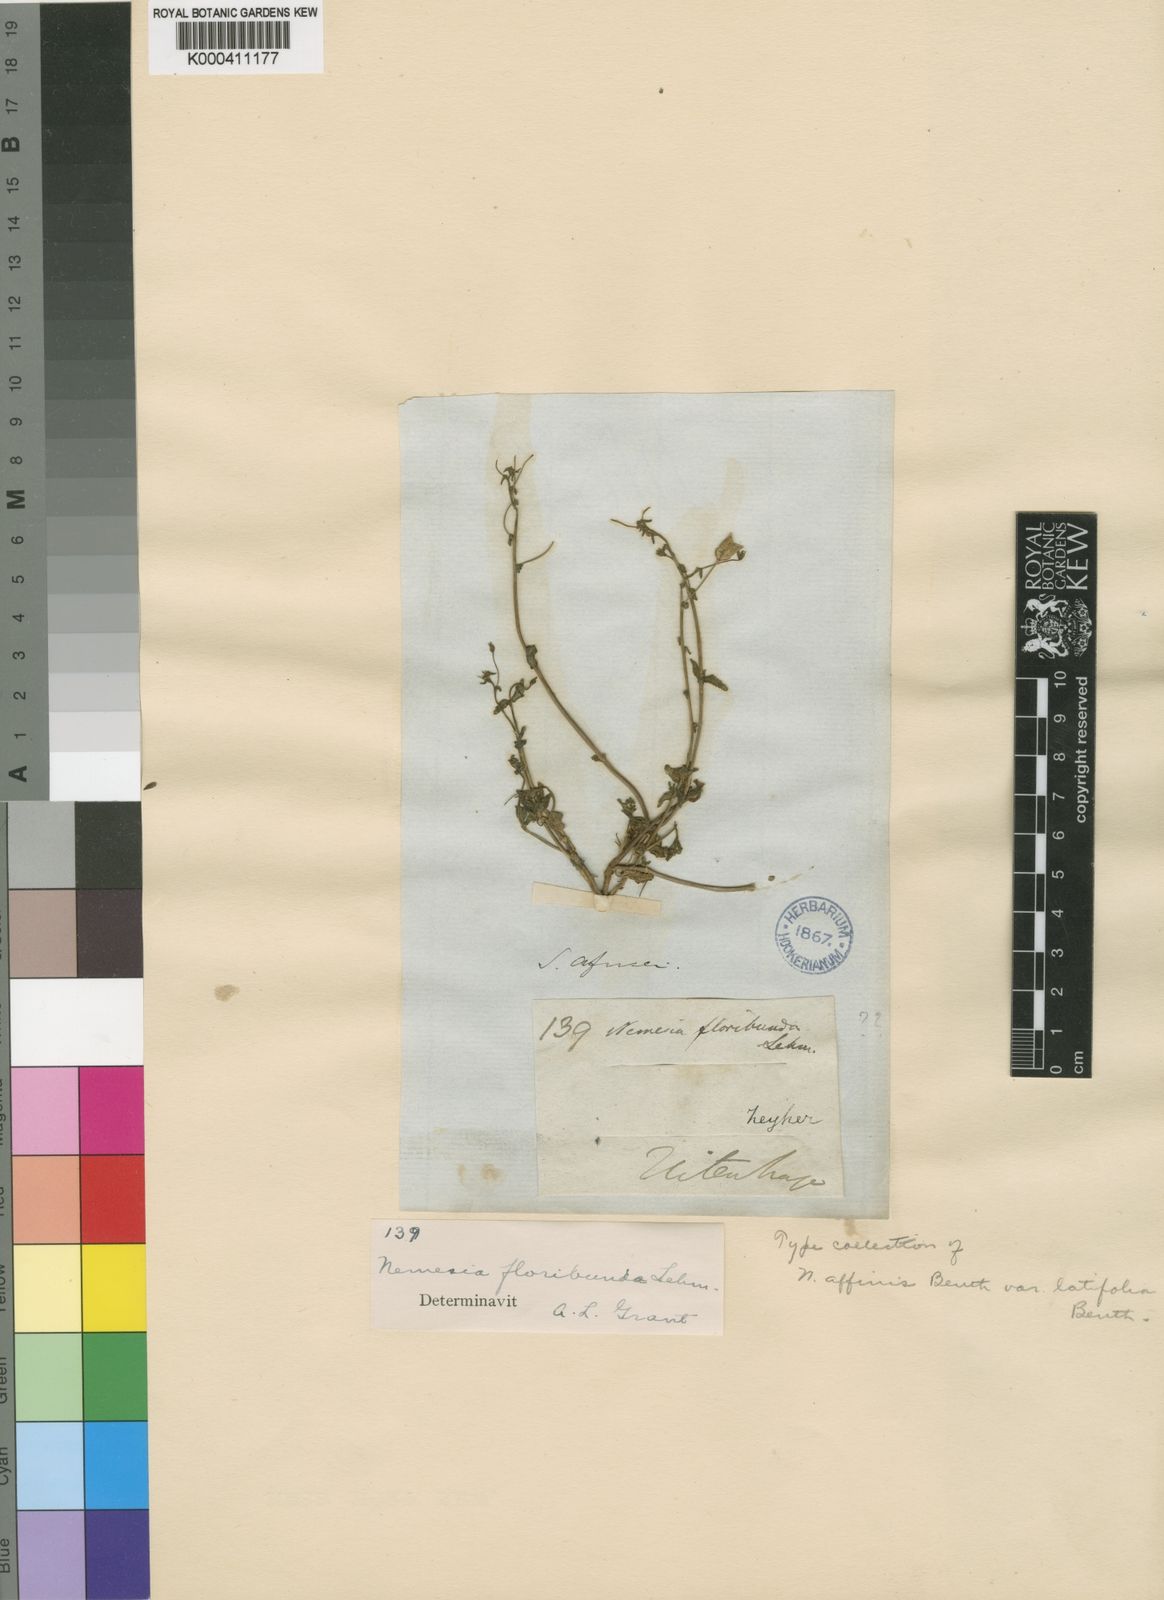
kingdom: Plantae
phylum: Tracheophyta
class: Magnoliopsida
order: Lamiales
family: Scrophulariaceae
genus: Nemesia
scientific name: Nemesia floribunda
